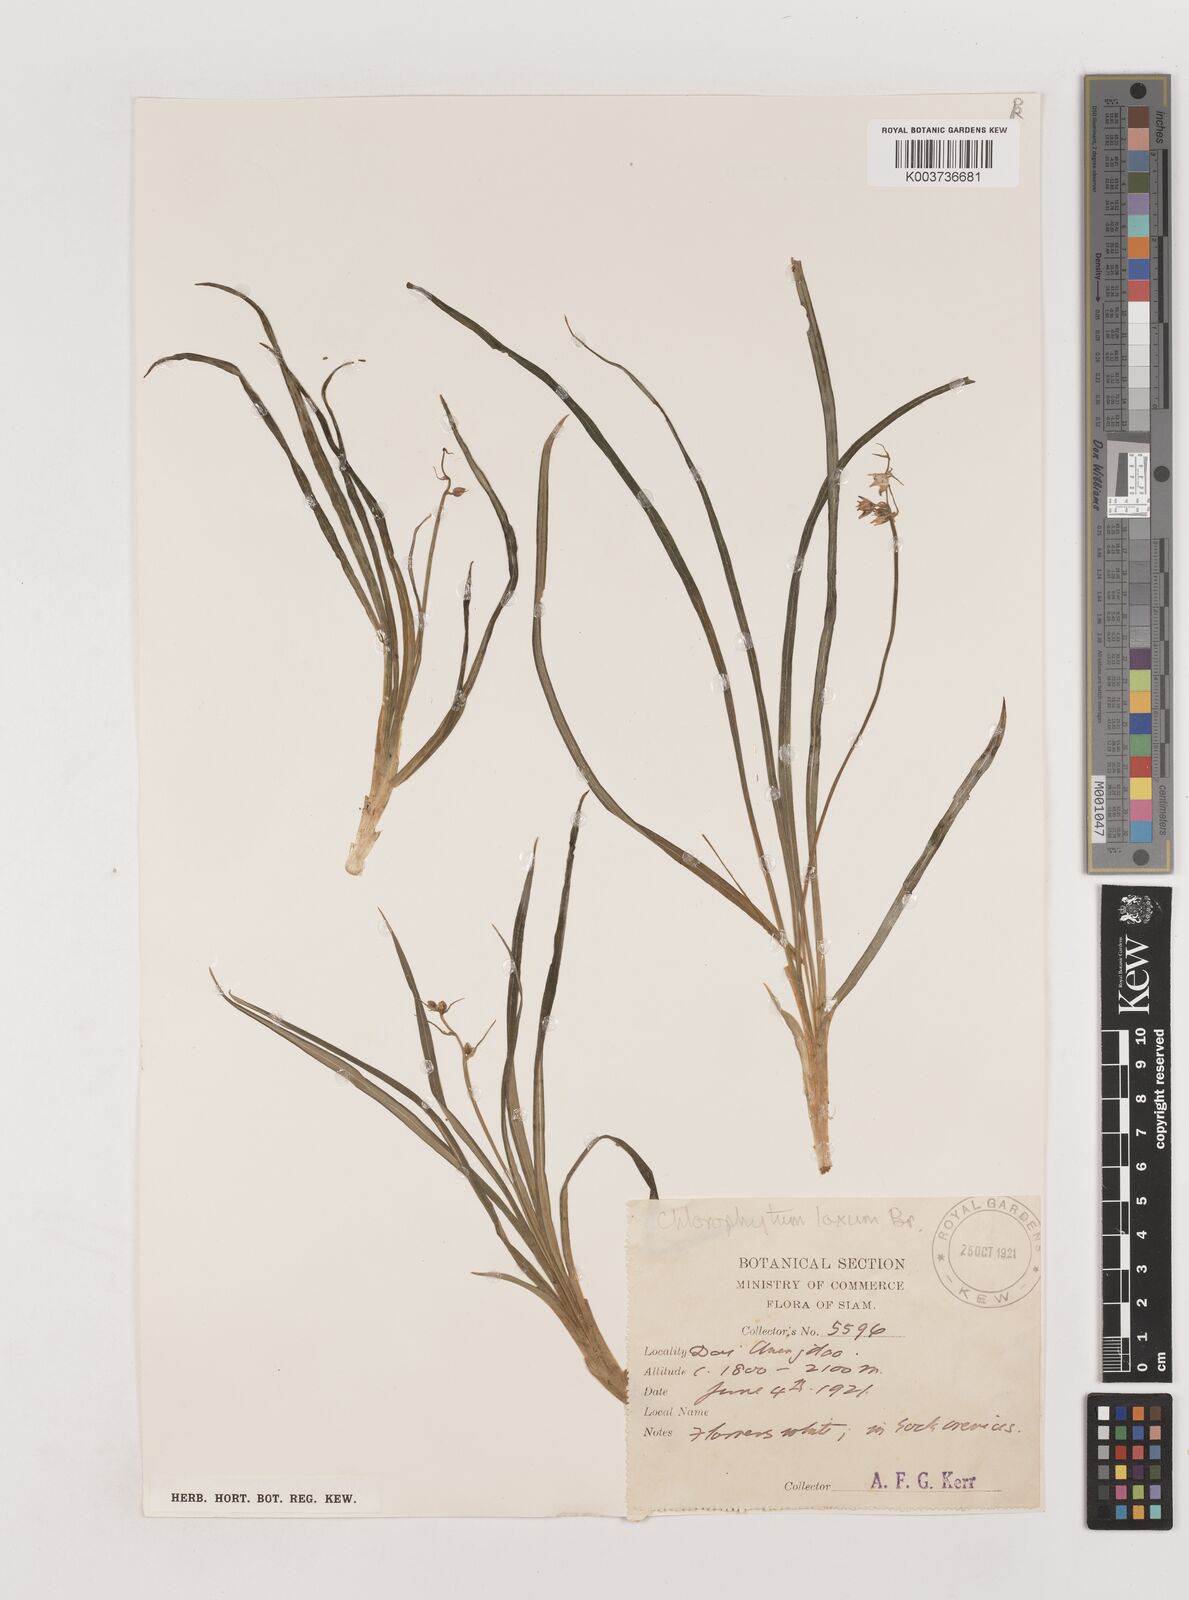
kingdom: Plantae
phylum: Tracheophyta
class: Liliopsida
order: Asparagales
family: Asparagaceae
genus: Chlorophytum
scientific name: Chlorophytum laxum
